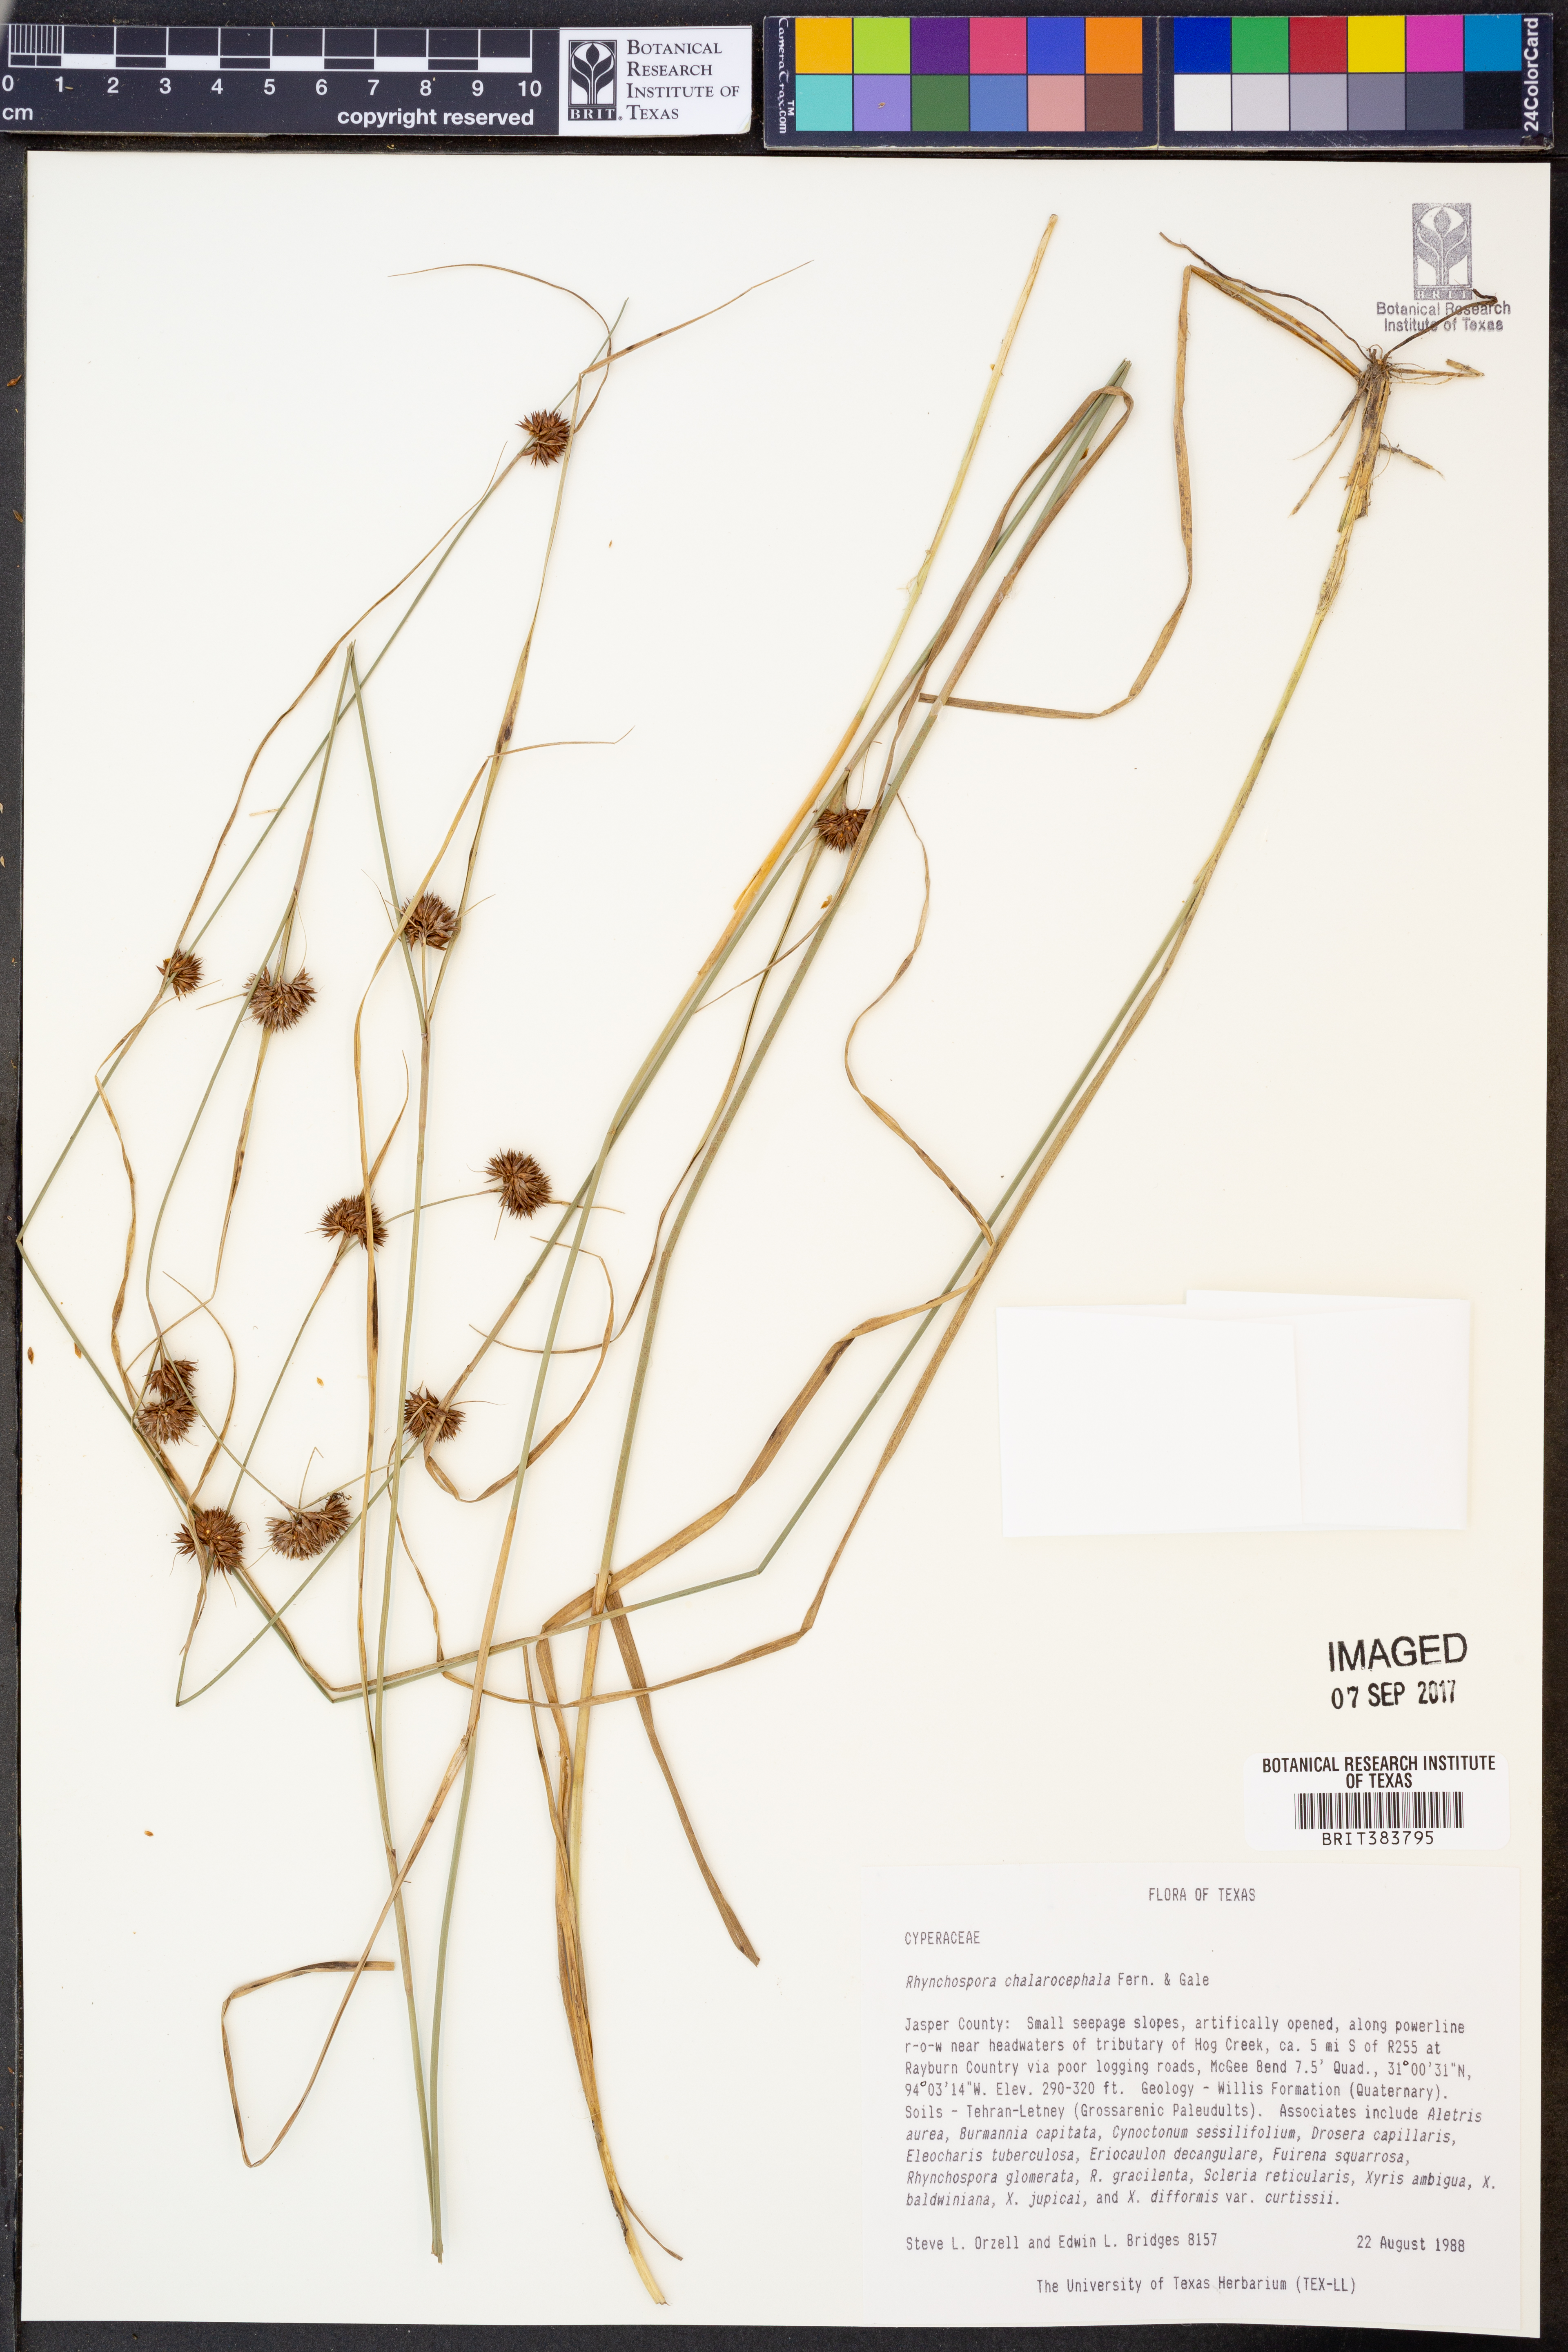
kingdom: Plantae
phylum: Tracheophyta
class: Liliopsida
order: Poales
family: Cyperaceae
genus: Rhynchospora
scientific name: Rhynchospora chalarocephala
